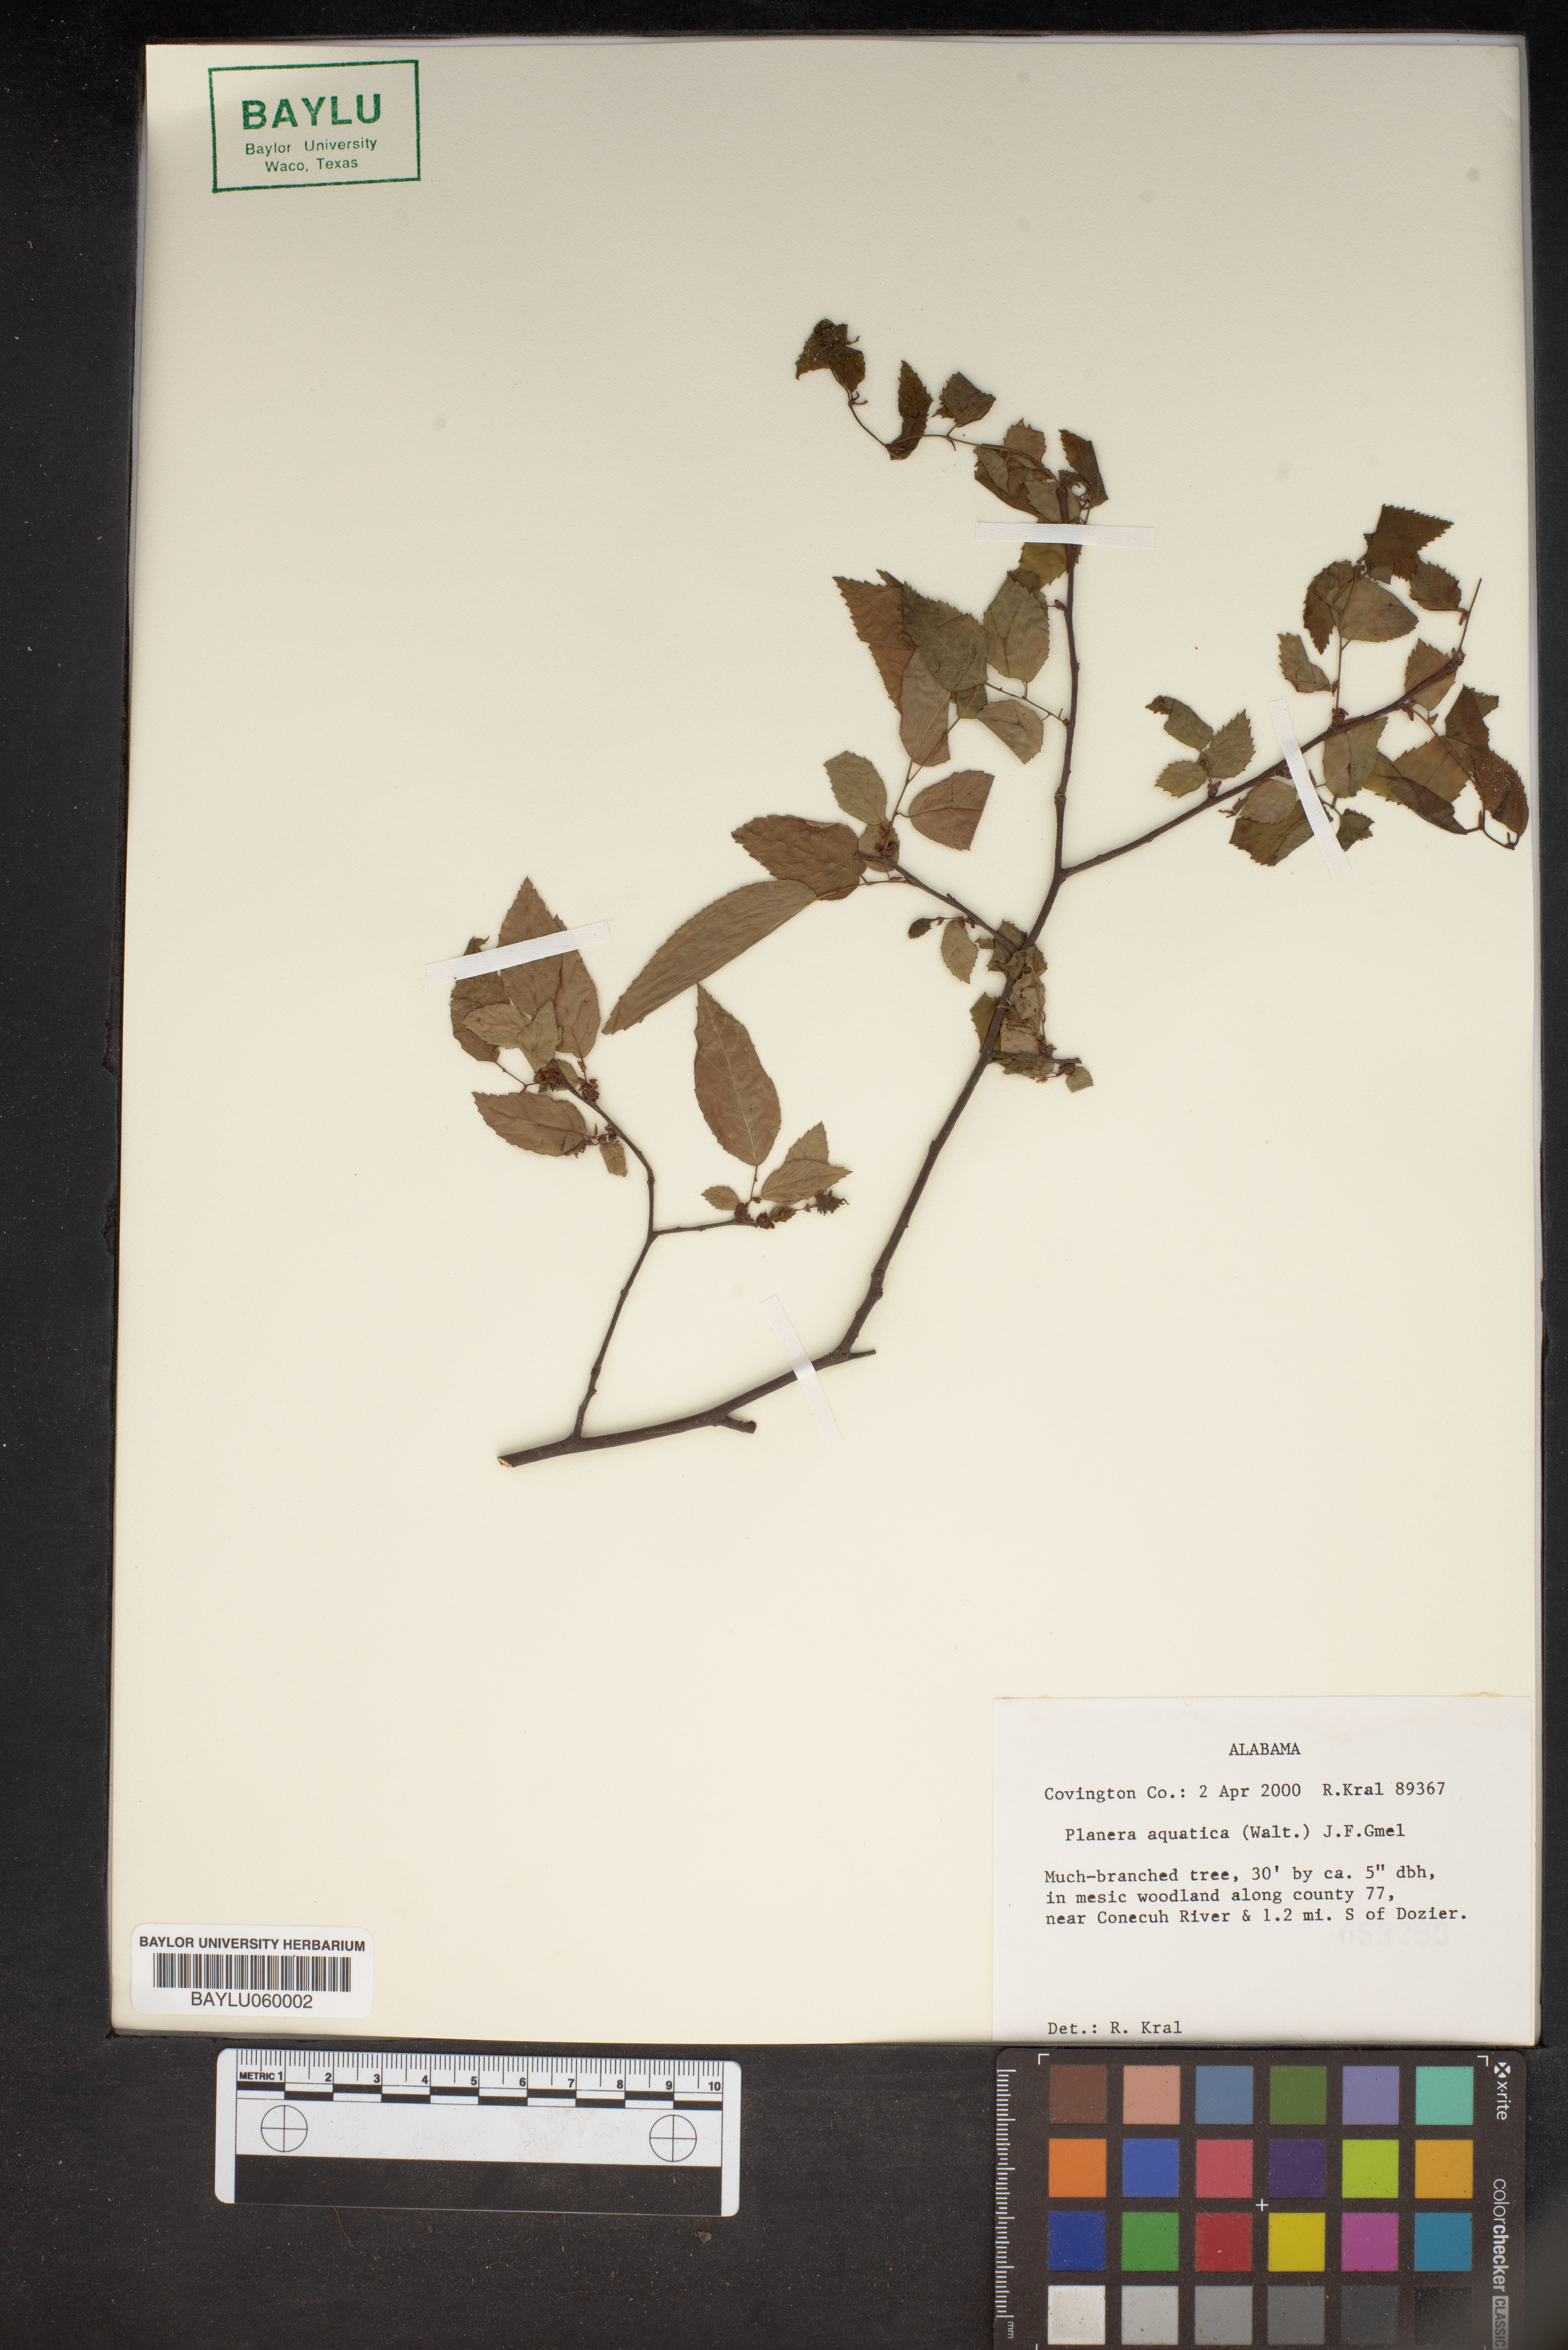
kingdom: Plantae
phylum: Tracheophyta
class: Magnoliopsida
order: Rosales
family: Ulmaceae
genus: Planera
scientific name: Planera aquatica
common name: Water-elm
